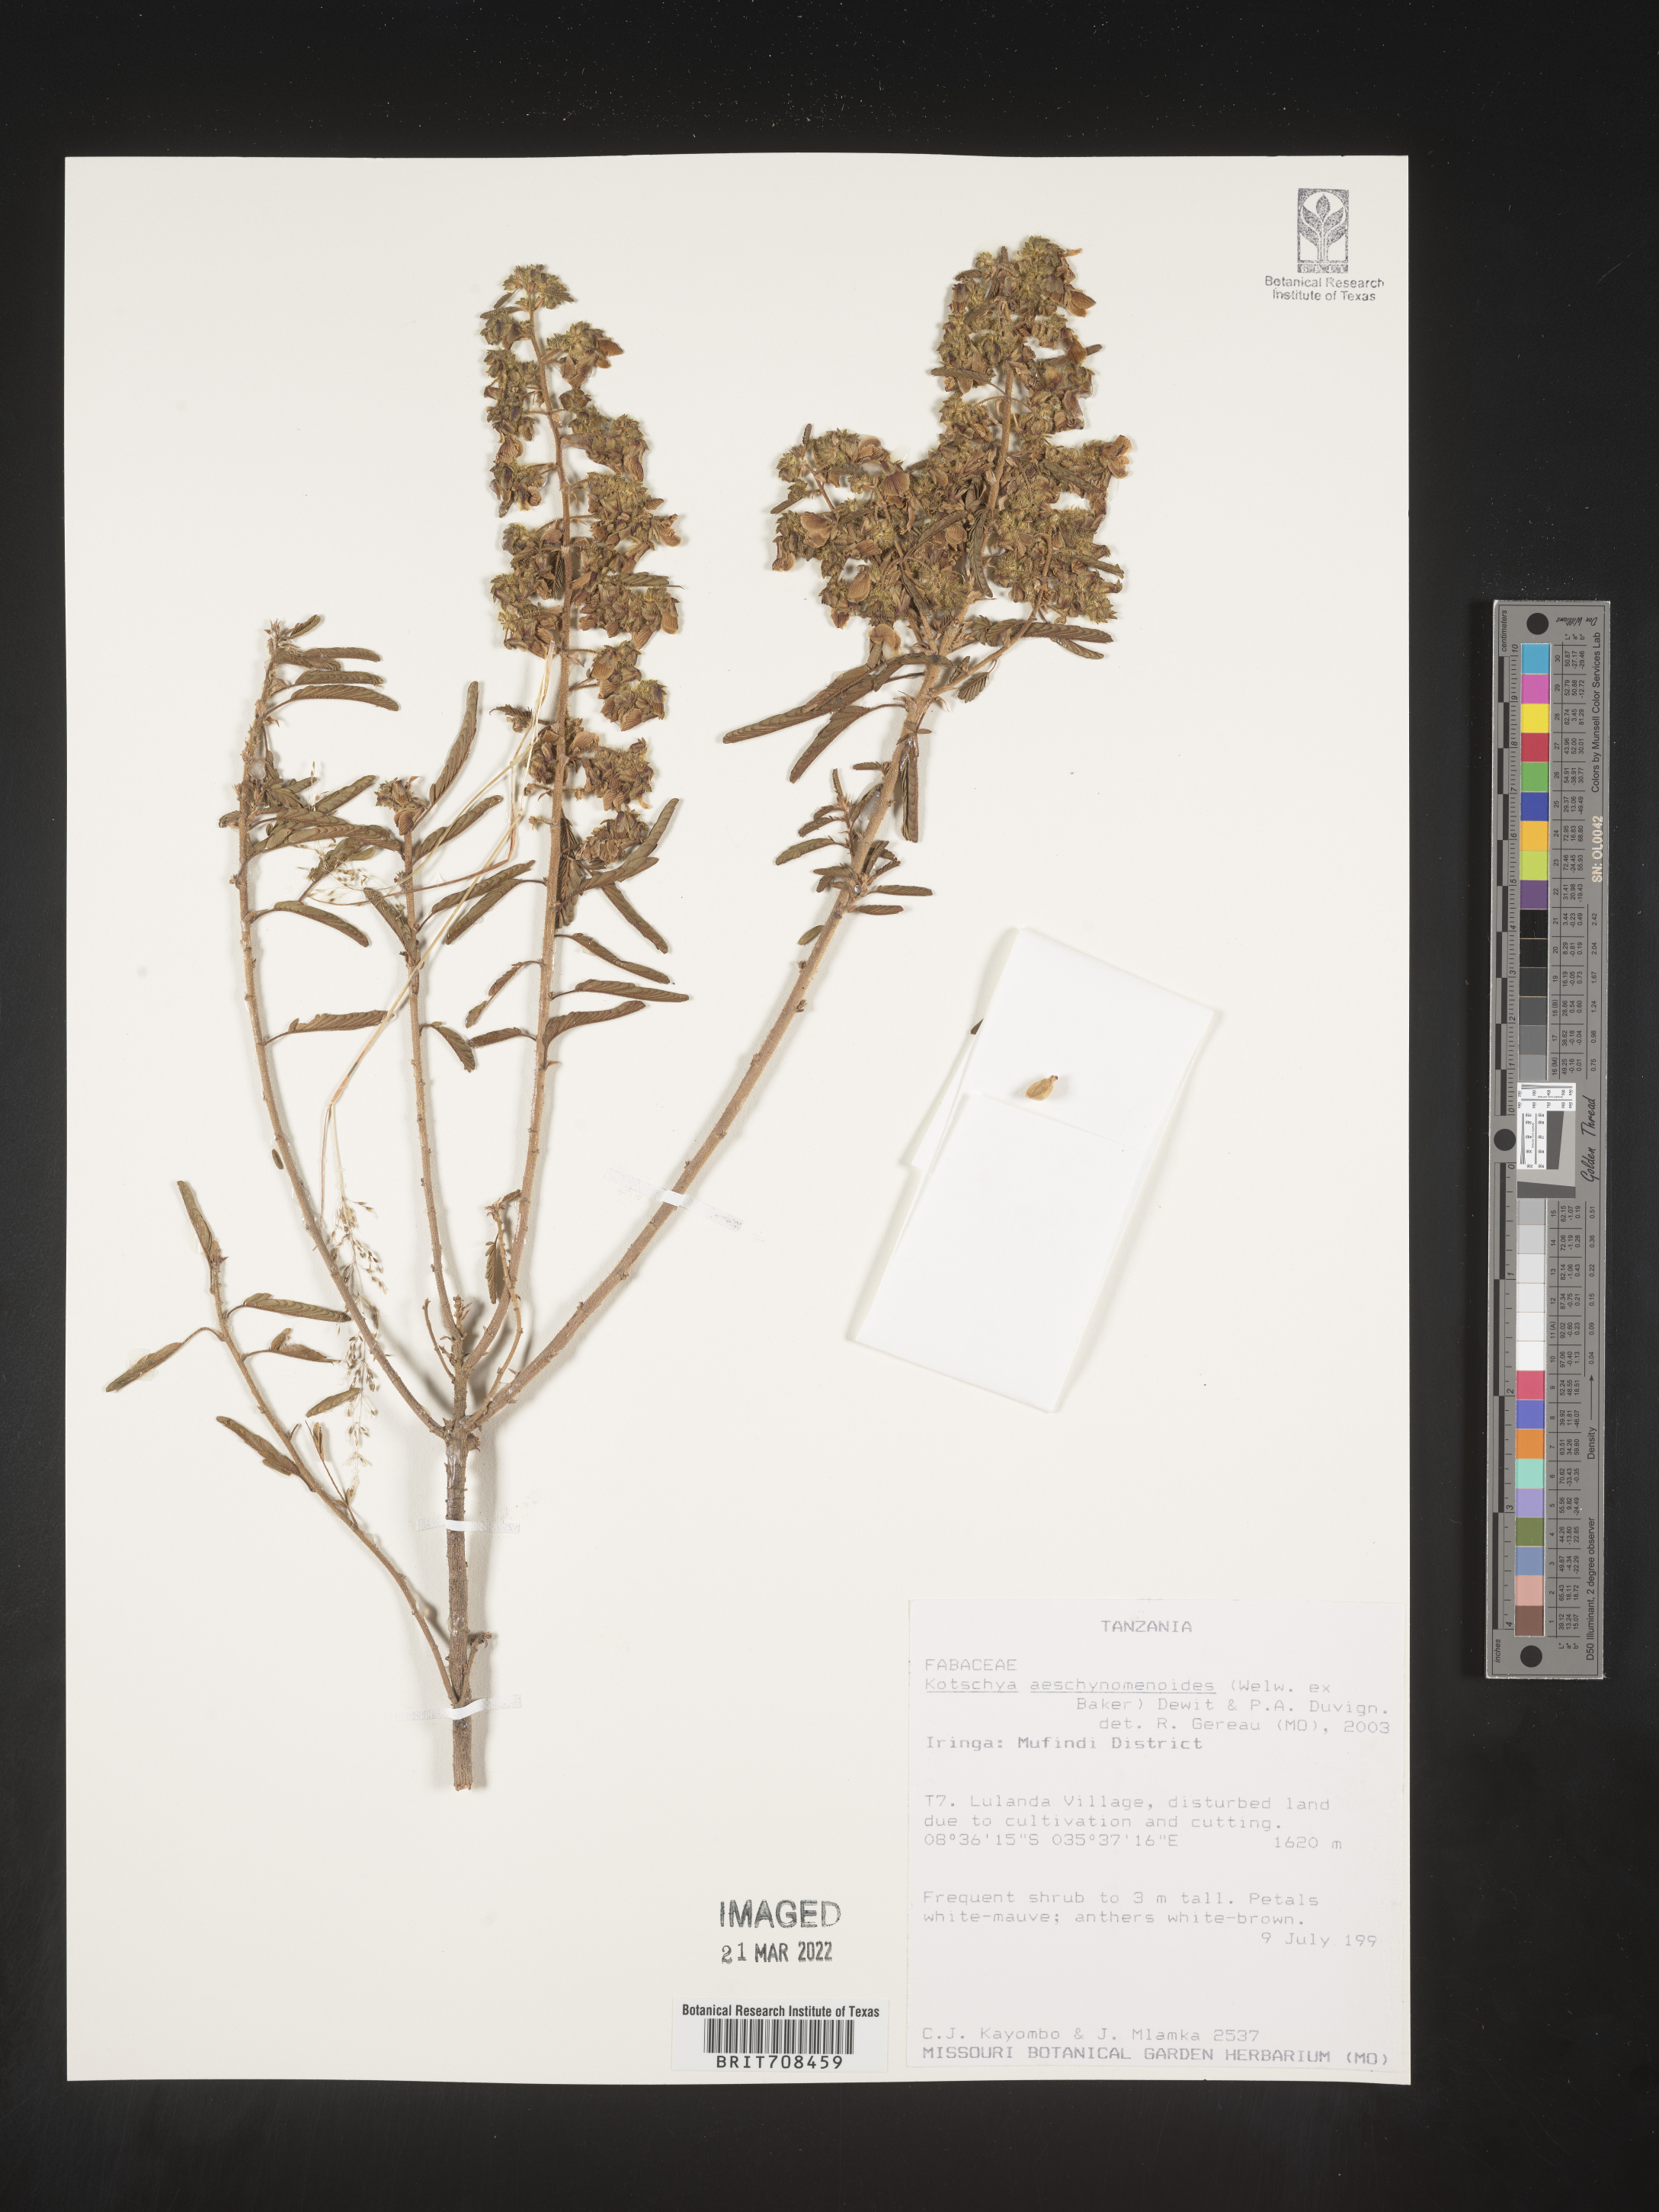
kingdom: Plantae
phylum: Tracheophyta
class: Magnoliopsida
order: Fabales
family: Fabaceae
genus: Kotschya
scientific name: Kotschya
